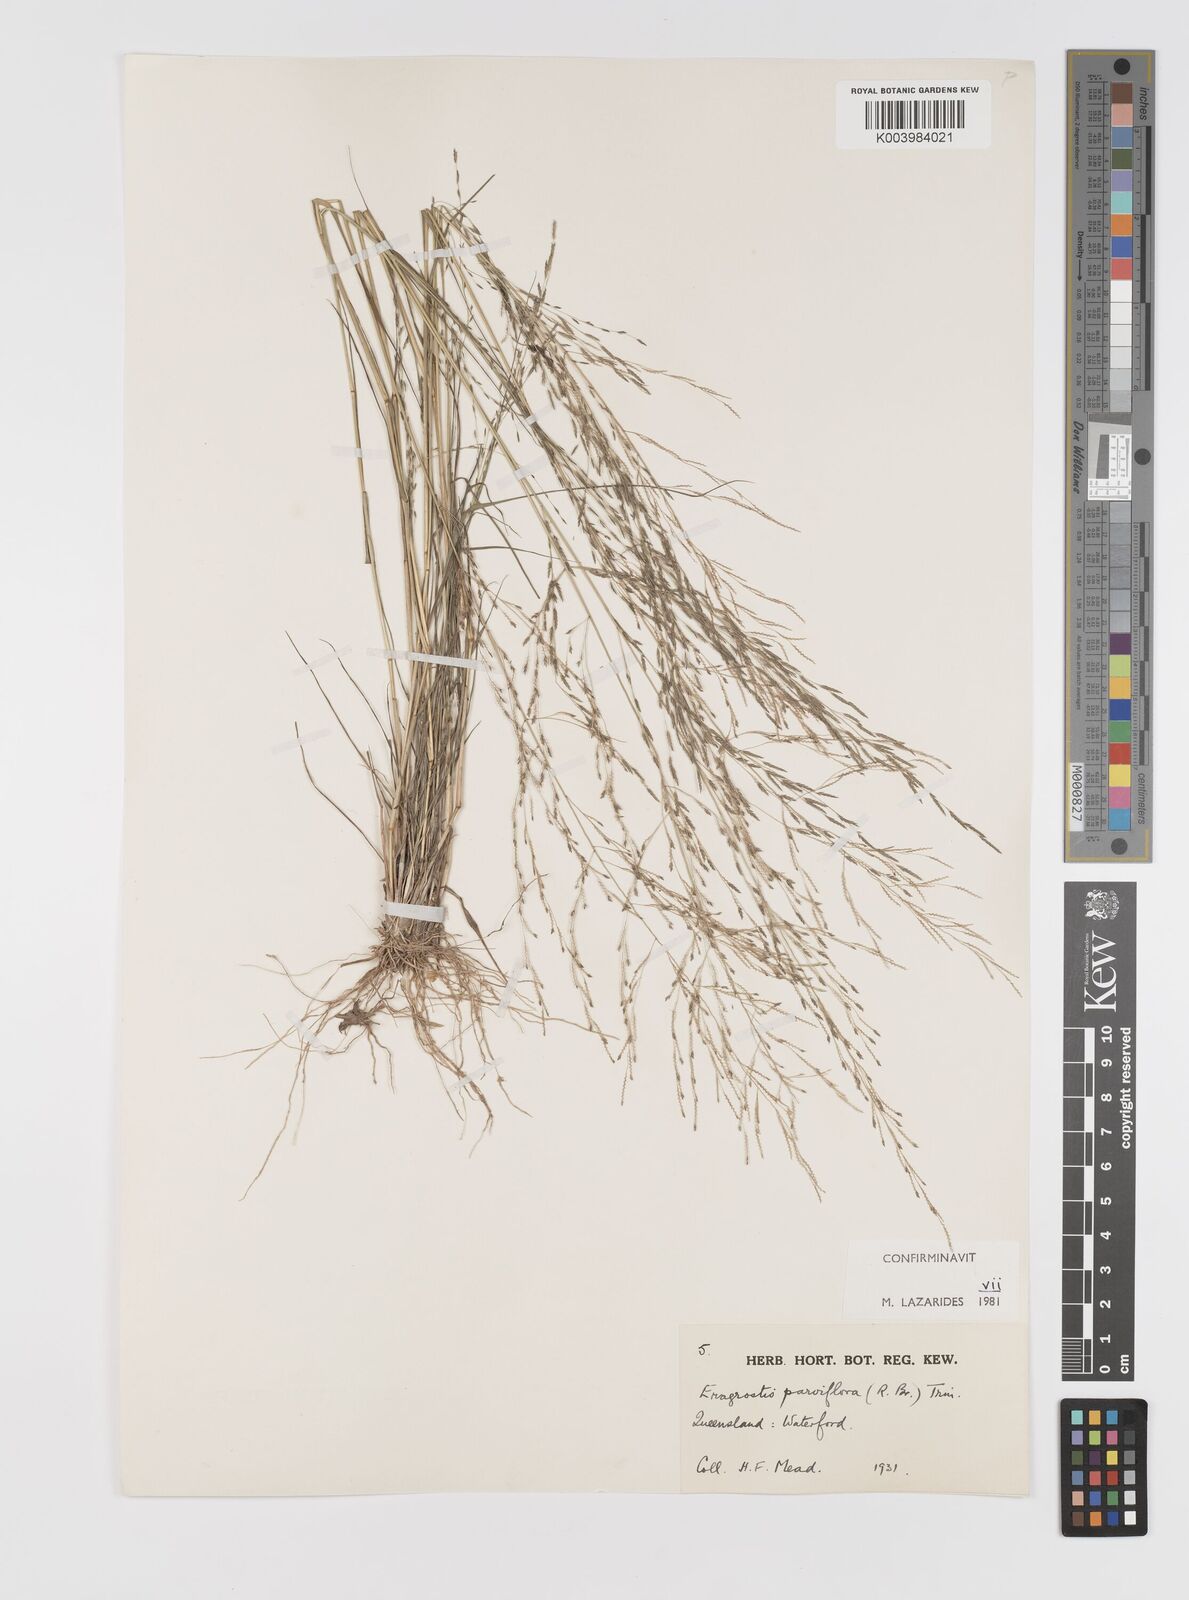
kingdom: Plantae
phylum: Tracheophyta
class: Liliopsida
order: Poales
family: Poaceae
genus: Eragrostis
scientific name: Eragrostis parviflora
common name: Weeping love-grass
